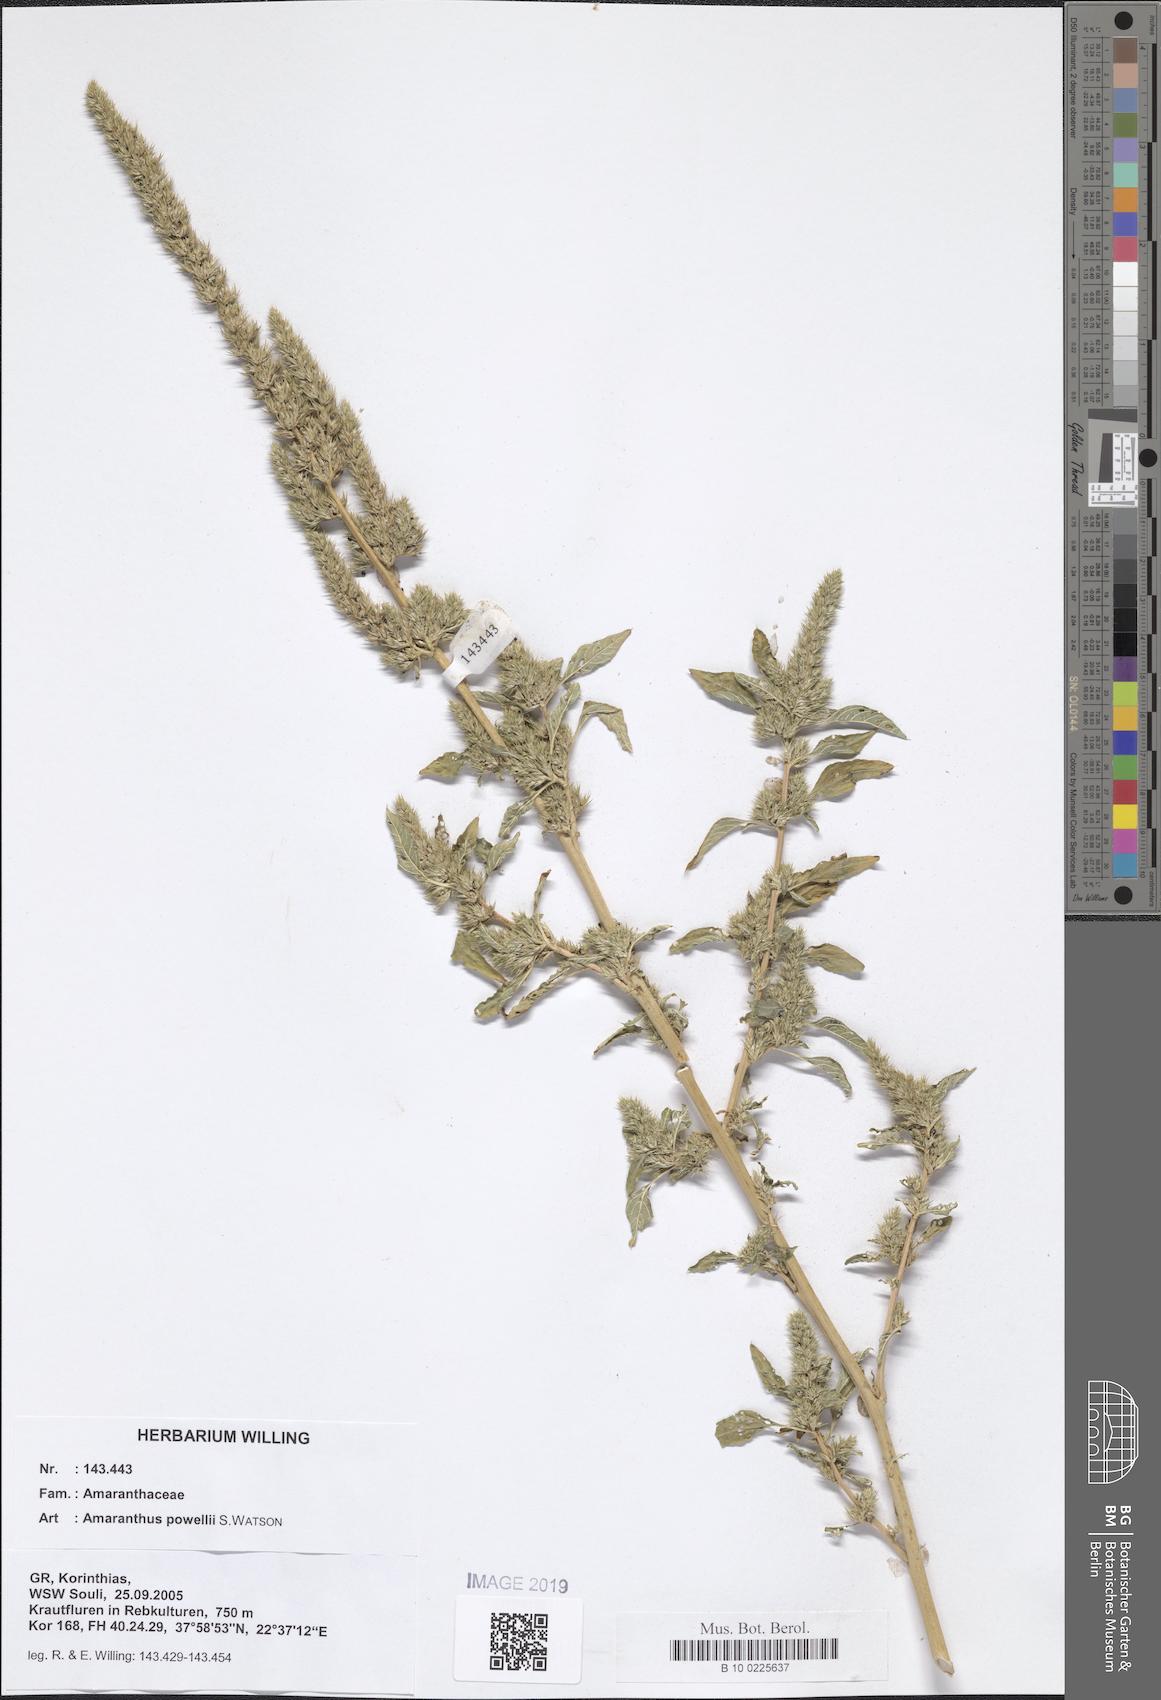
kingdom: Plantae
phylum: Tracheophyta
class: Magnoliopsida
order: Caryophyllales
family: Amaranthaceae
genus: Amaranthus
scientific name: Amaranthus powellii
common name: Powell's amaranth
